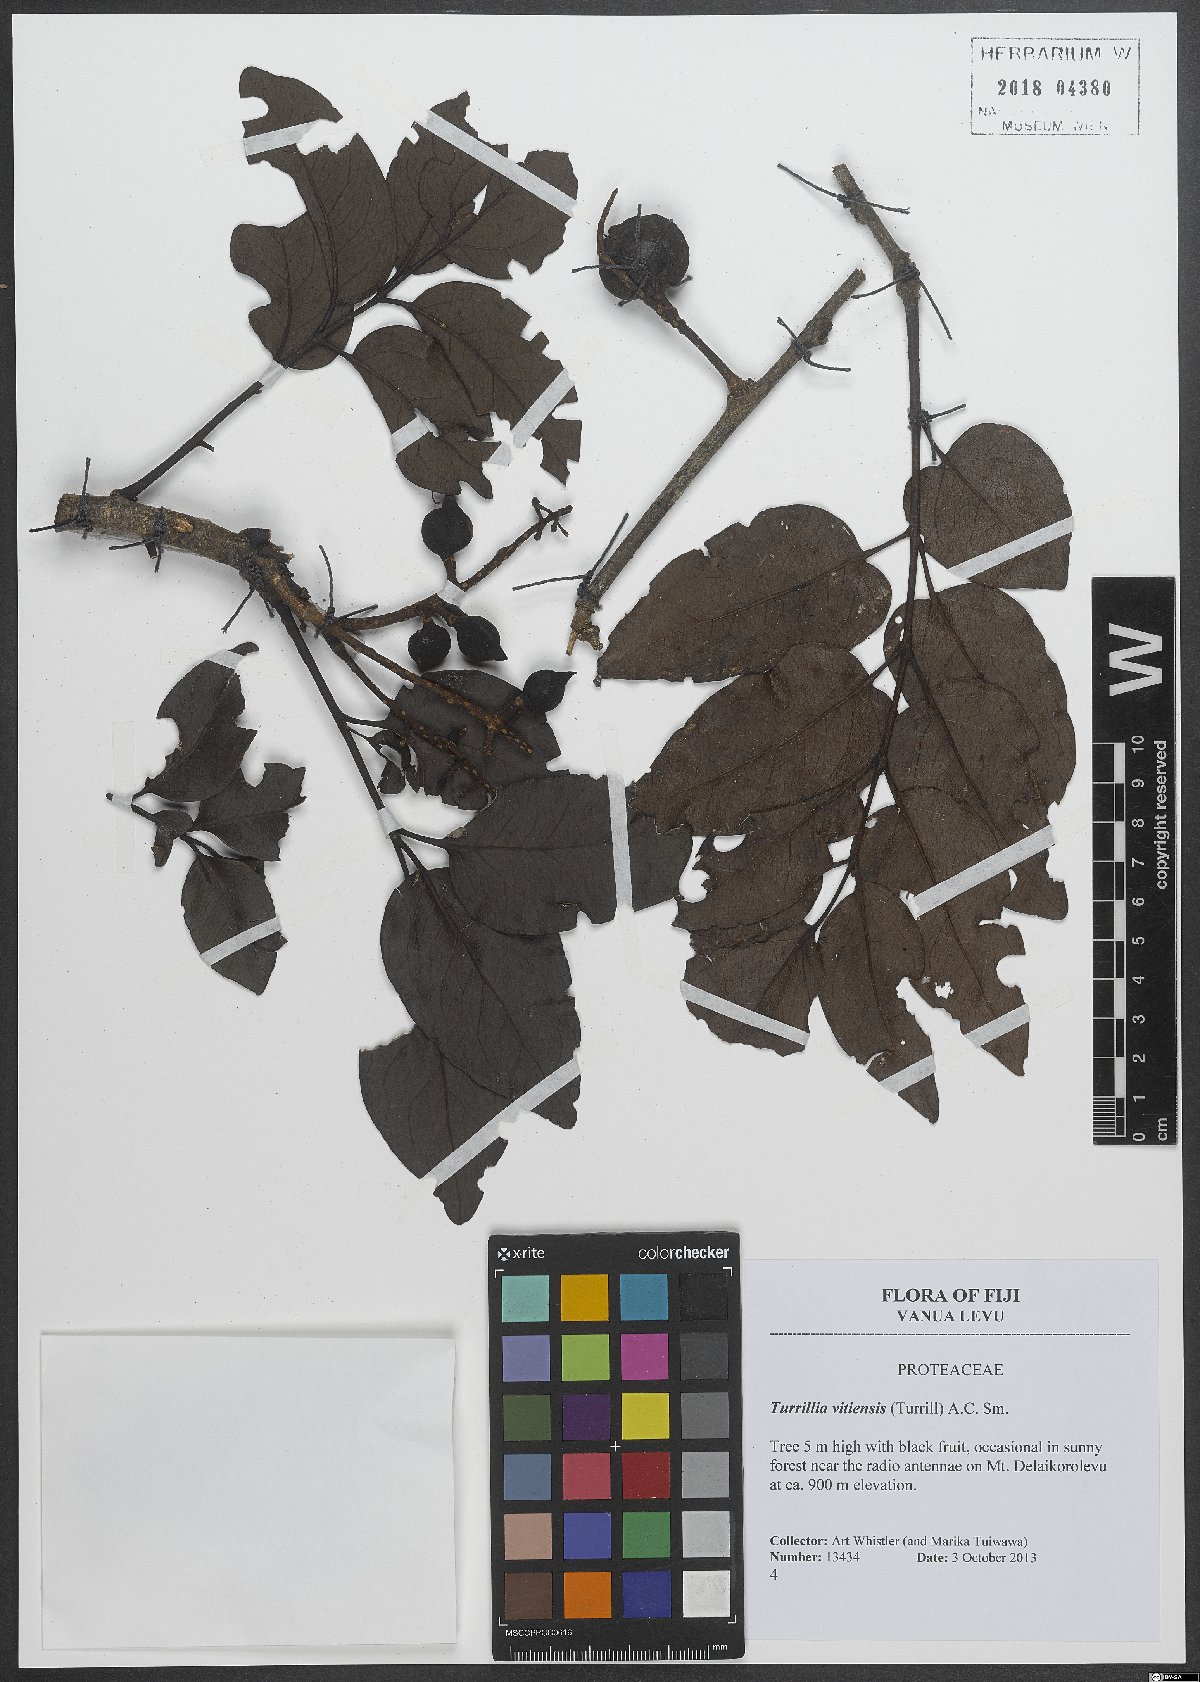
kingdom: Plantae
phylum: Tracheophyta
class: Magnoliopsida
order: Proteales
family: Proteaceae
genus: Turrillia
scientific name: Turrillia vitiensis
